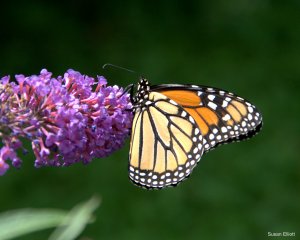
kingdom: Animalia
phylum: Arthropoda
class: Insecta
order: Lepidoptera
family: Nymphalidae
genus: Danaus
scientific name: Danaus plexippus
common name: Monarch
